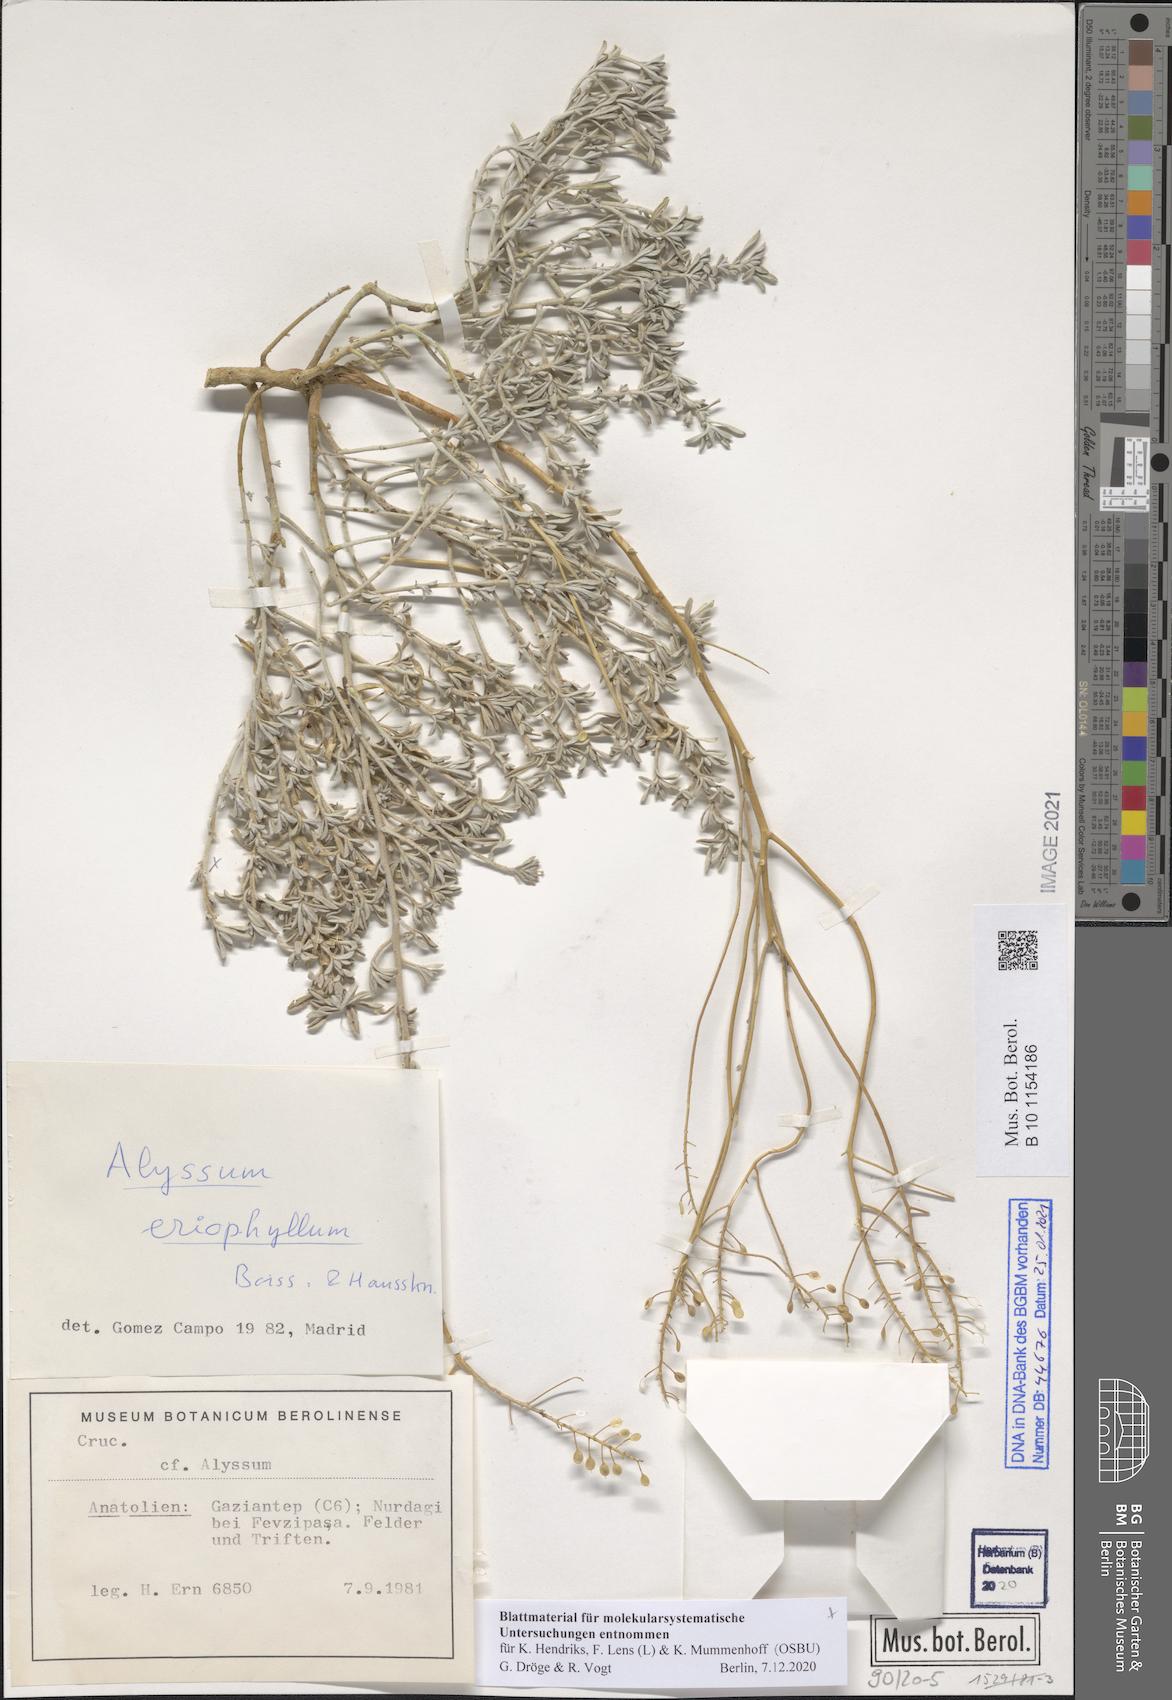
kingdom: Plantae
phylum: Tracheophyta
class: Magnoliopsida
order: Brassicales
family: Brassicaceae
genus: Odontarrhena
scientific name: Odontarrhena eriophylla
